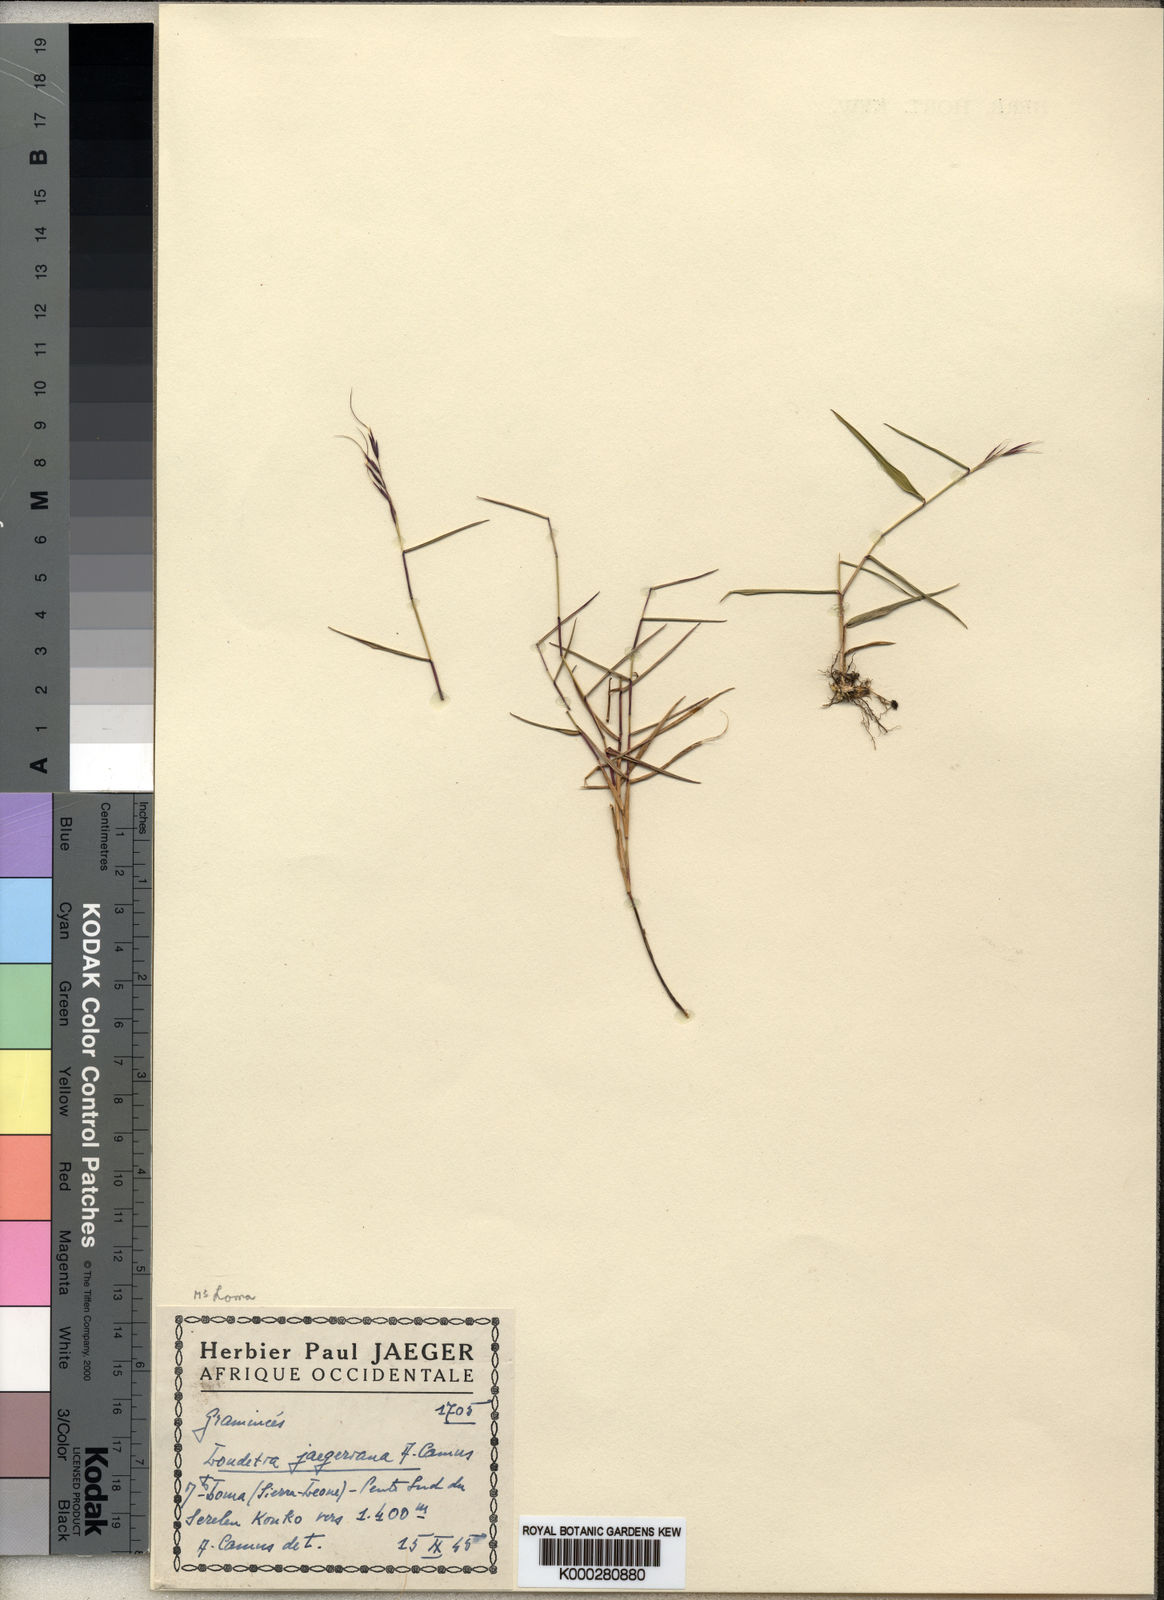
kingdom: Plantae
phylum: Tracheophyta
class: Liliopsida
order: Poales
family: Poaceae
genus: Loudetia
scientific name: Loudetia jaegeriana
